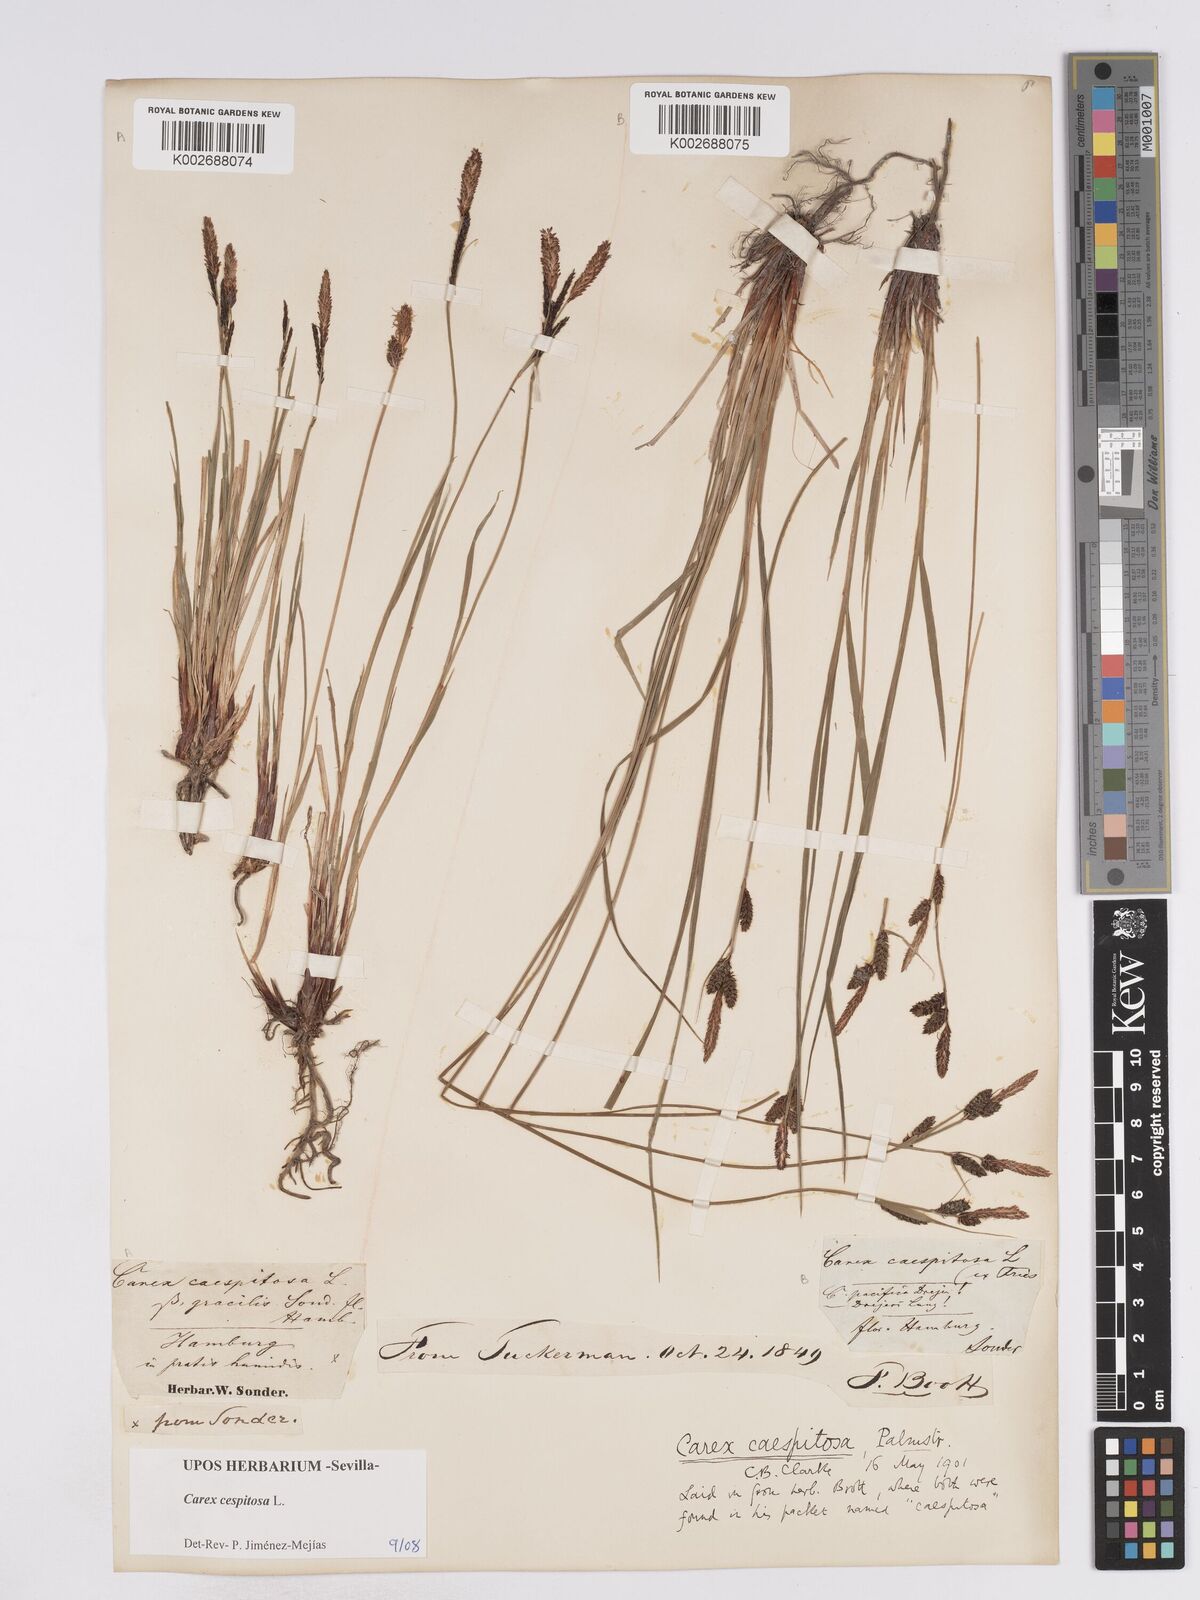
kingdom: Plantae
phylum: Tracheophyta
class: Liliopsida
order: Poales
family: Cyperaceae
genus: Carex
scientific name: Carex
